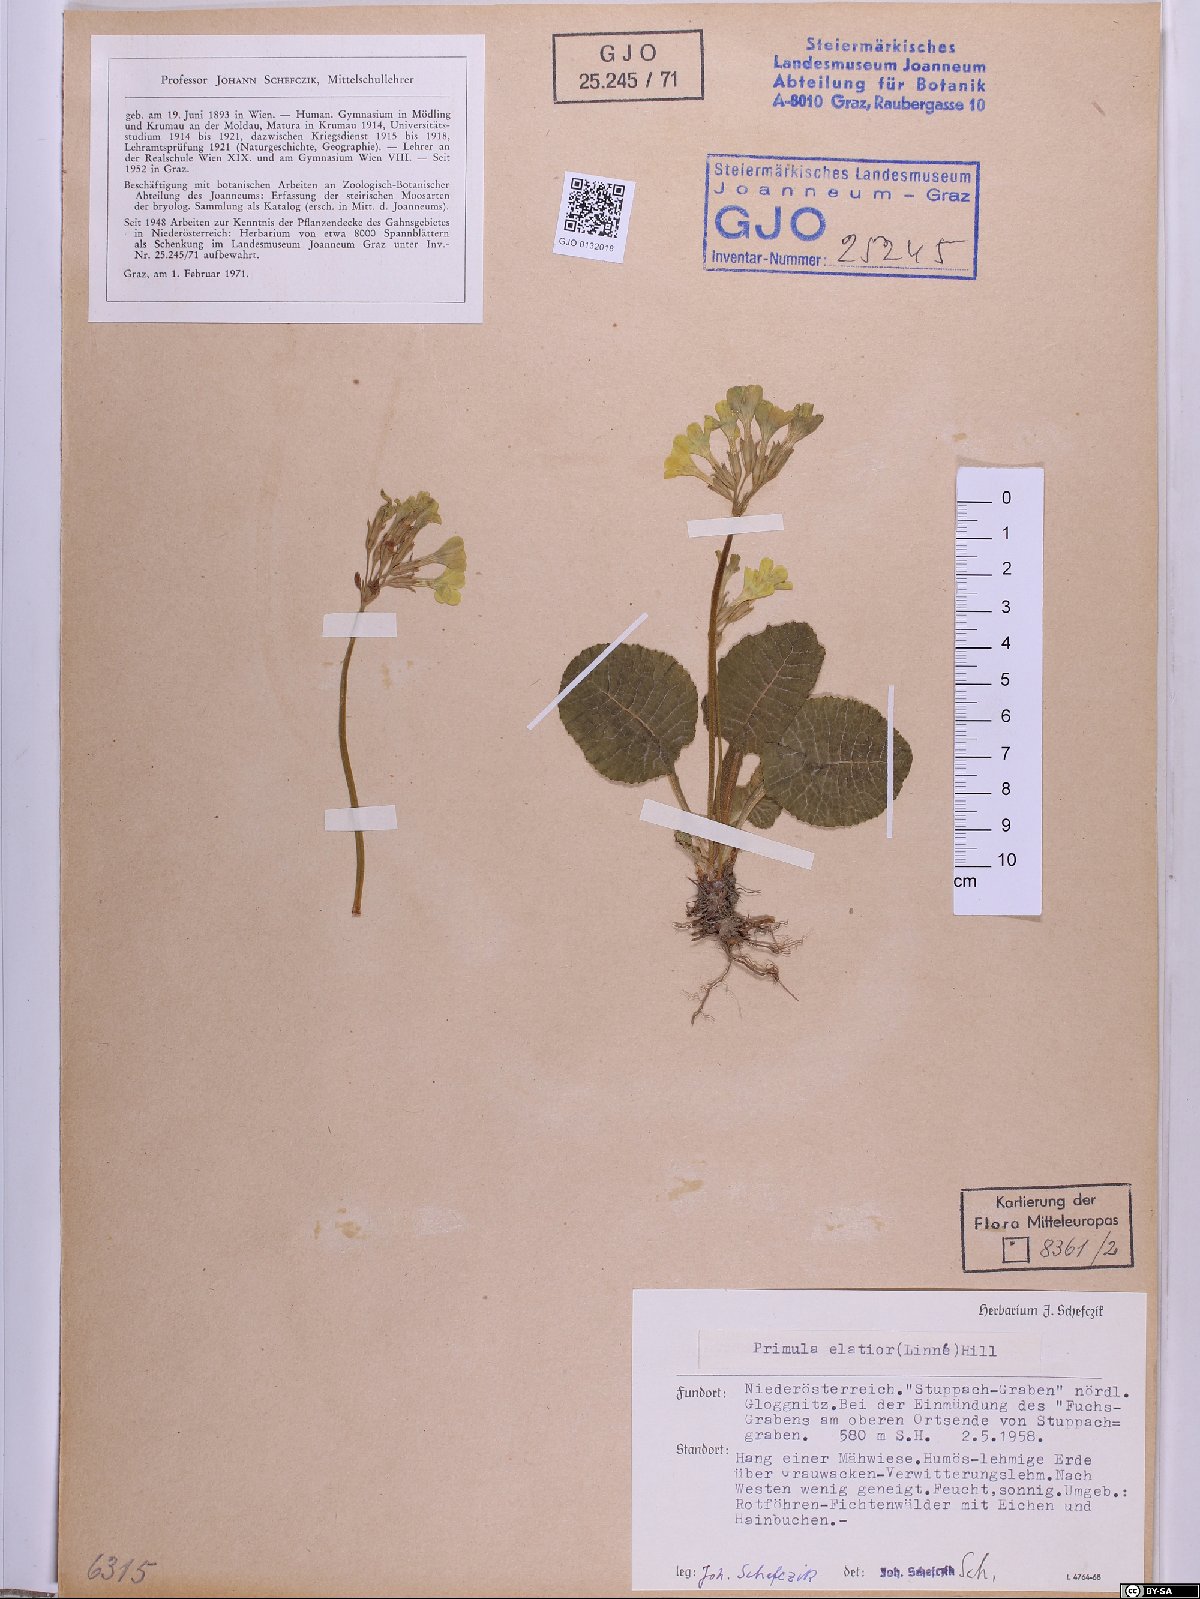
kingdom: Plantae
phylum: Tracheophyta
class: Magnoliopsida
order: Ericales
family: Primulaceae
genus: Primula
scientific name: Primula elatior
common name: Oxlip
